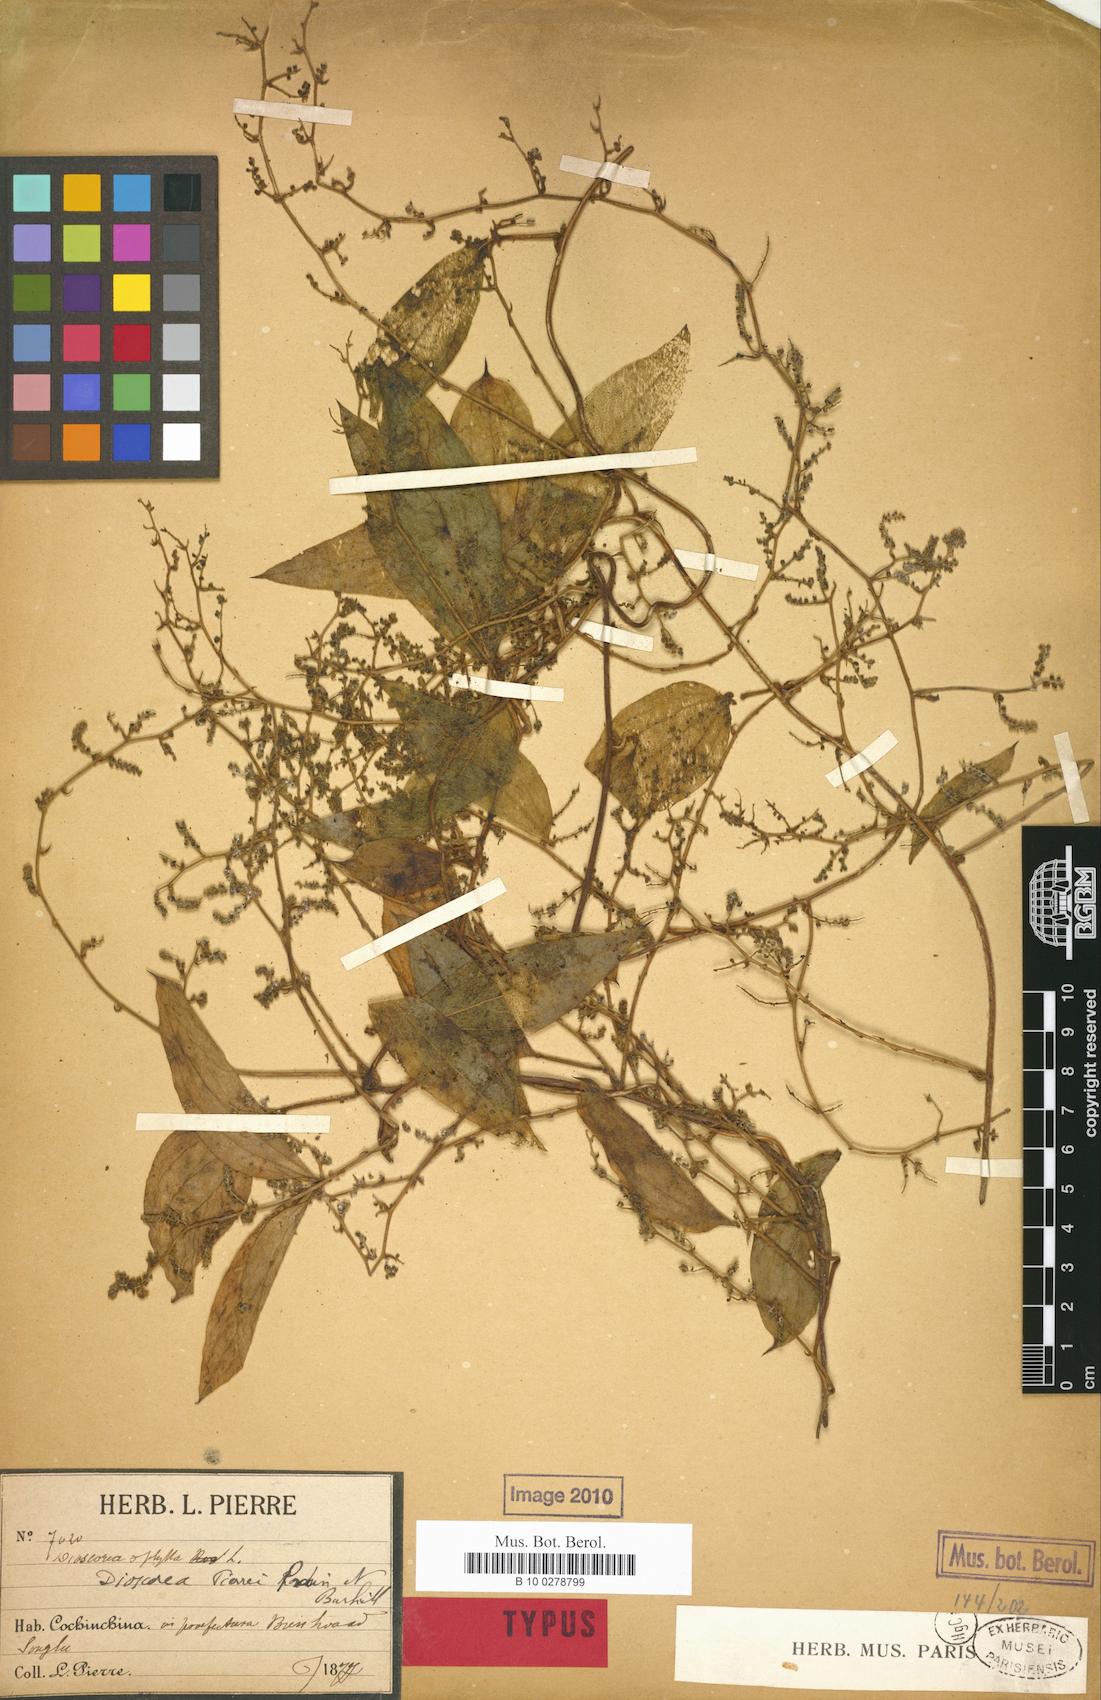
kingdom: Plantae
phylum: Tracheophyta
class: Liliopsida
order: Dioscoreales
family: Dioscoreaceae
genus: Dioscorea
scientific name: Dioscorea pierrei
